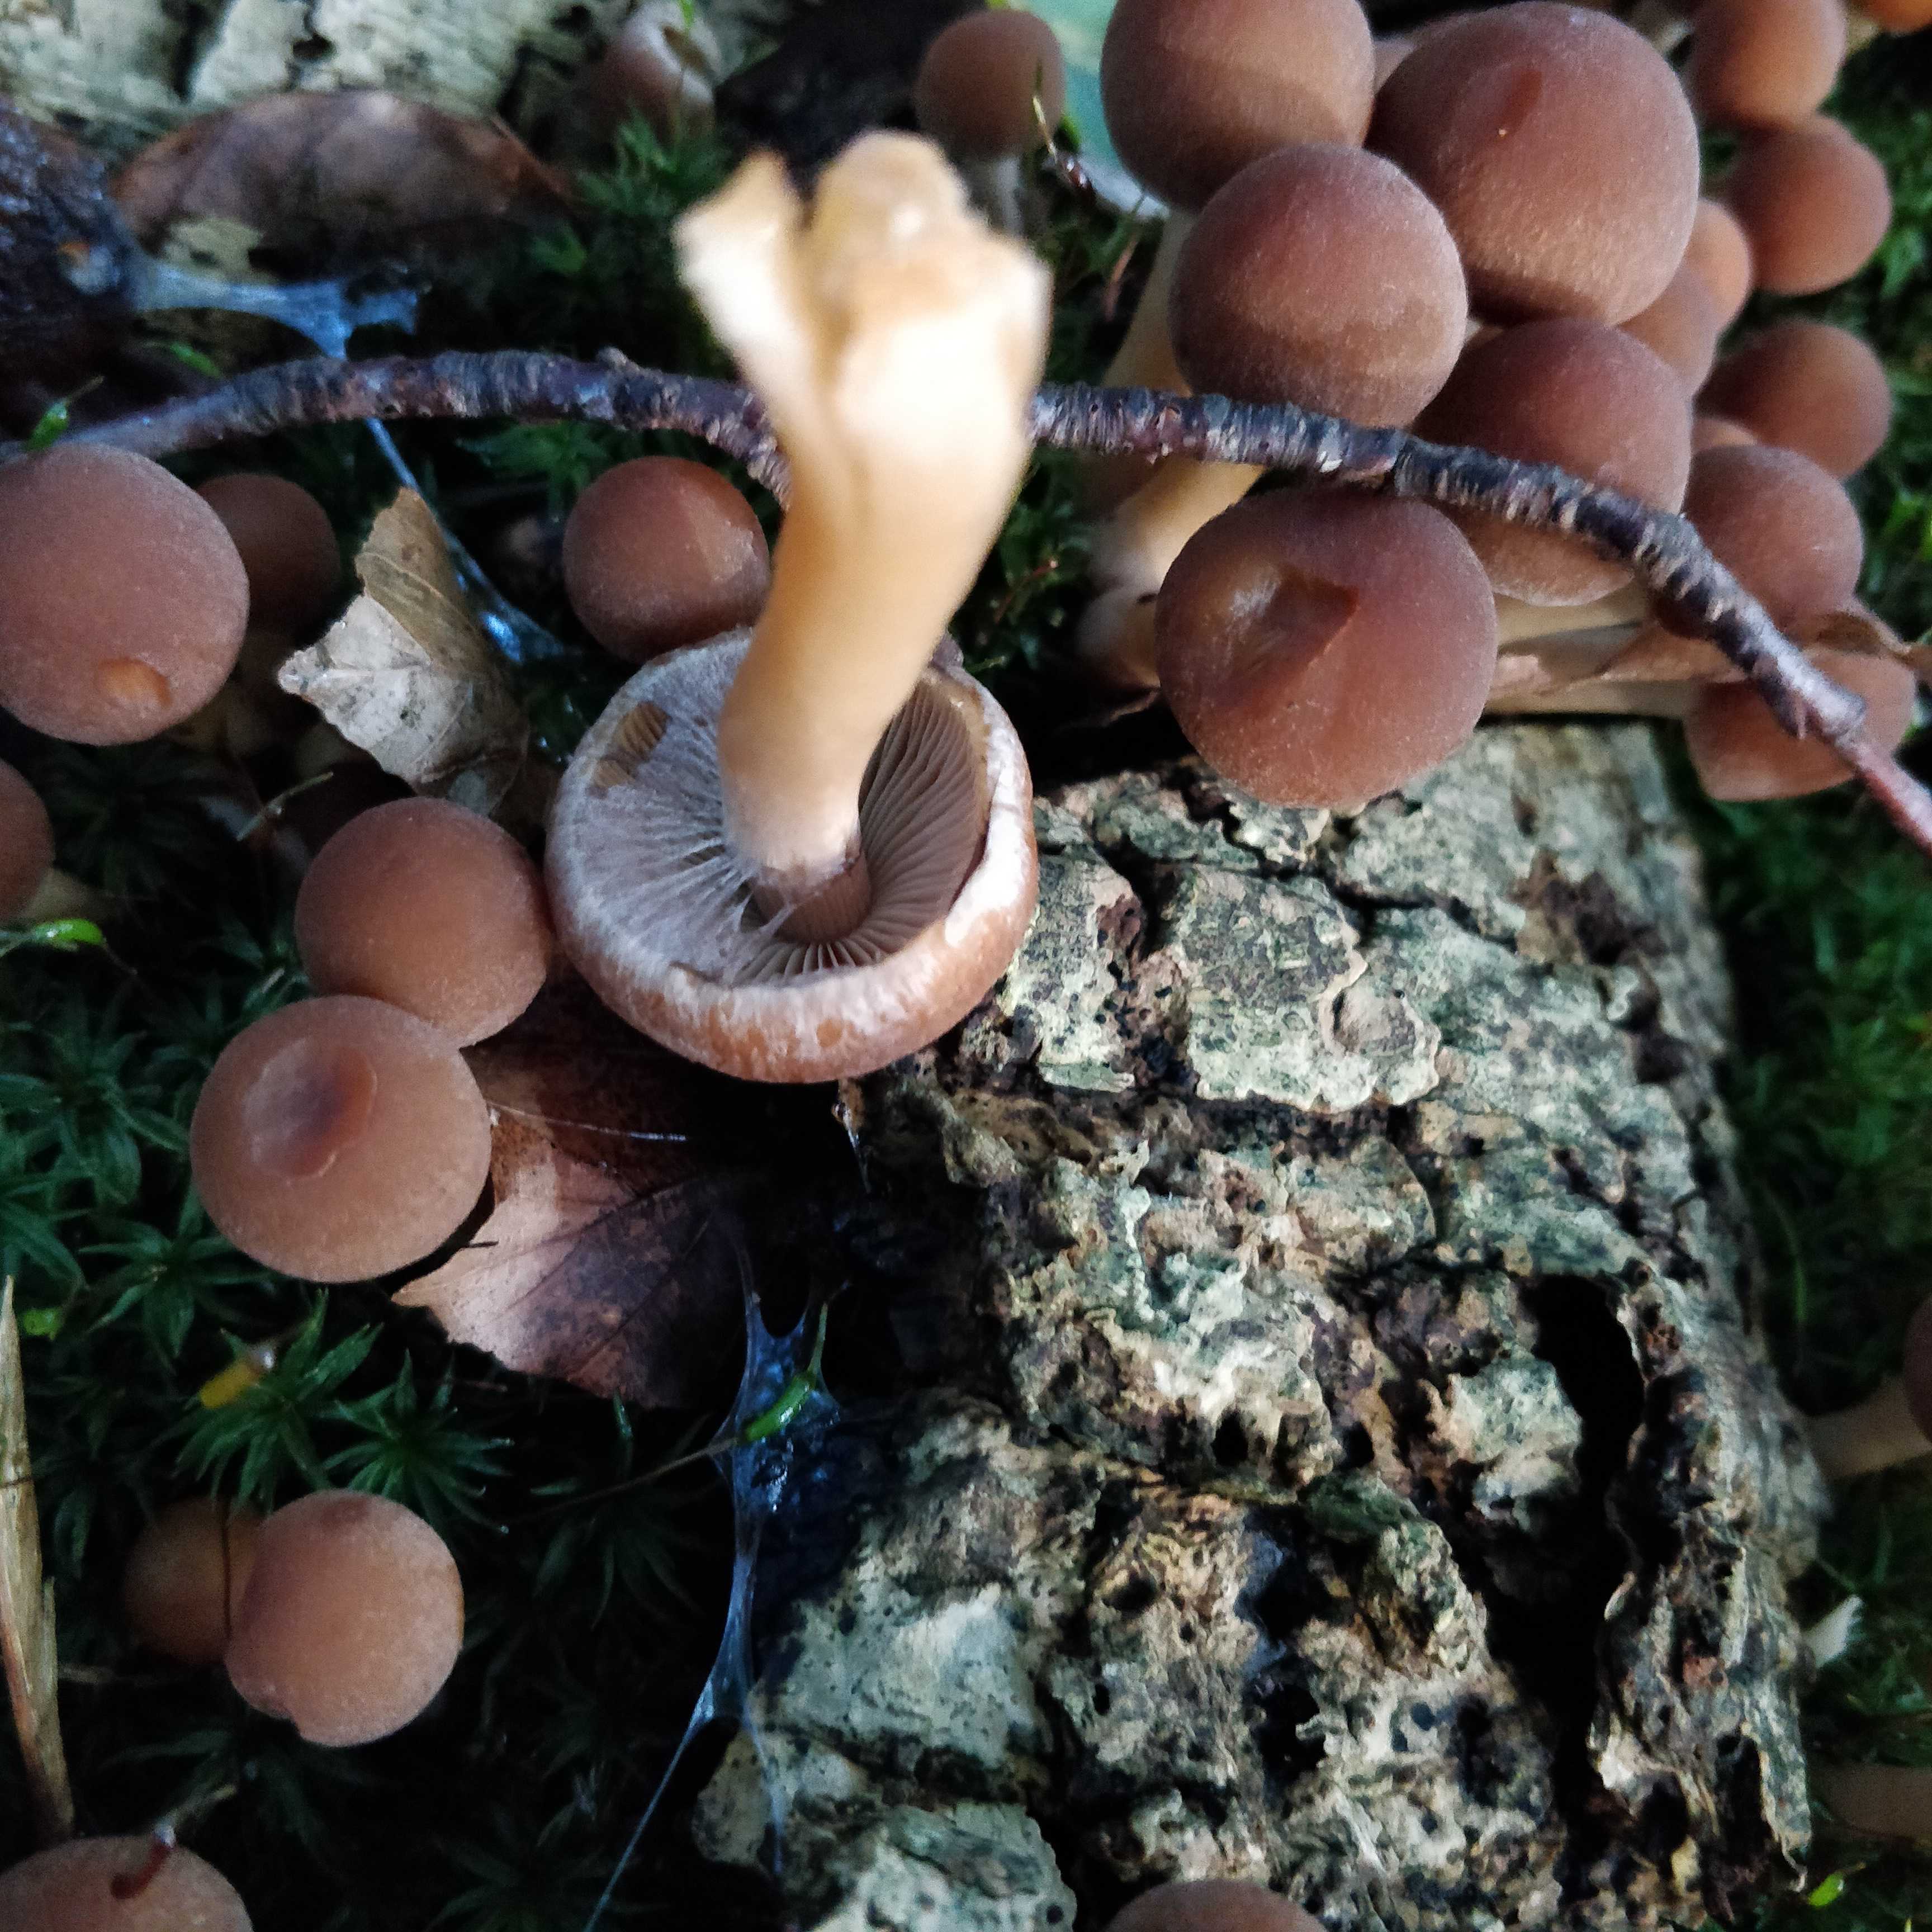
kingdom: Fungi
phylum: Basidiomycota
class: Agaricomycetes
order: Agaricales
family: Psathyrellaceae
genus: Psathyrella
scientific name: Psathyrella piluliformis
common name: lysstokket mørkhat
